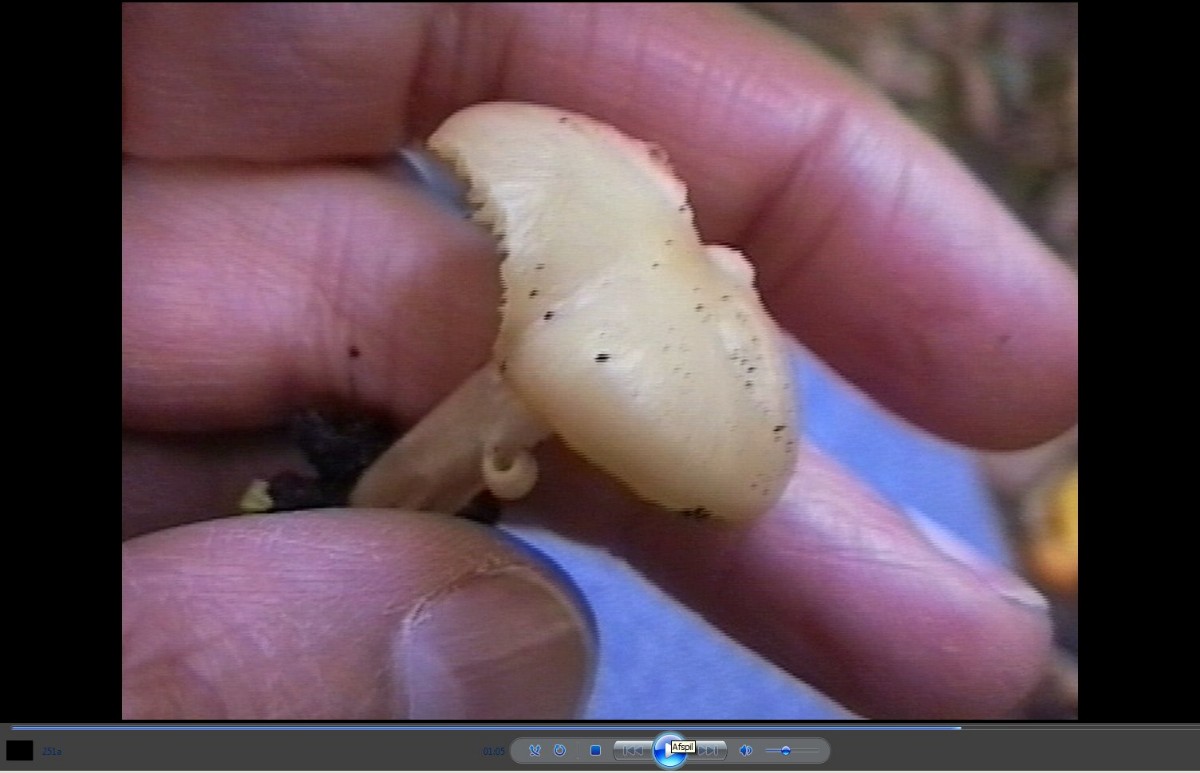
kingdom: Fungi
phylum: Basidiomycota
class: Agaricomycetes
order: Agaricales
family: Hygrophoraceae
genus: Hygrocybe
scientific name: Hygrocybe
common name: vokshat
